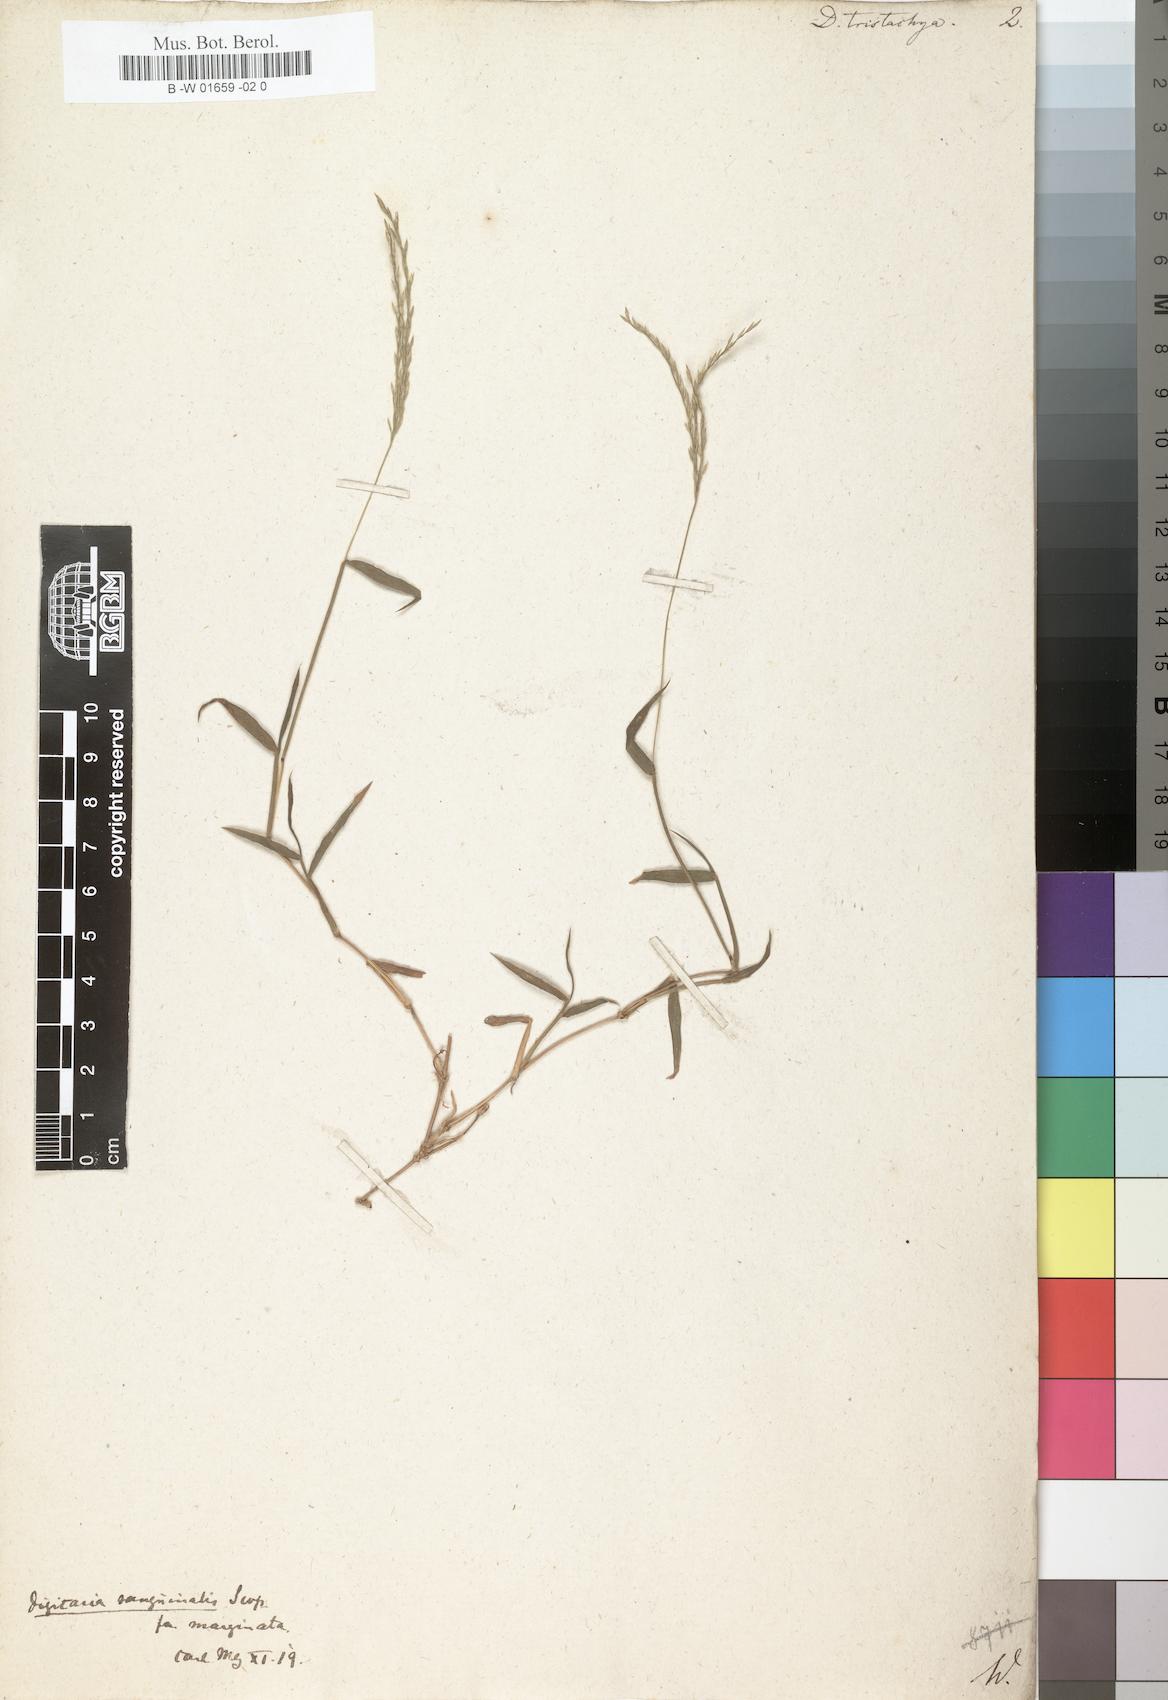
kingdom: Plantae
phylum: Tracheophyta
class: Liliopsida
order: Poales
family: Poaceae
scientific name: Poaceae
